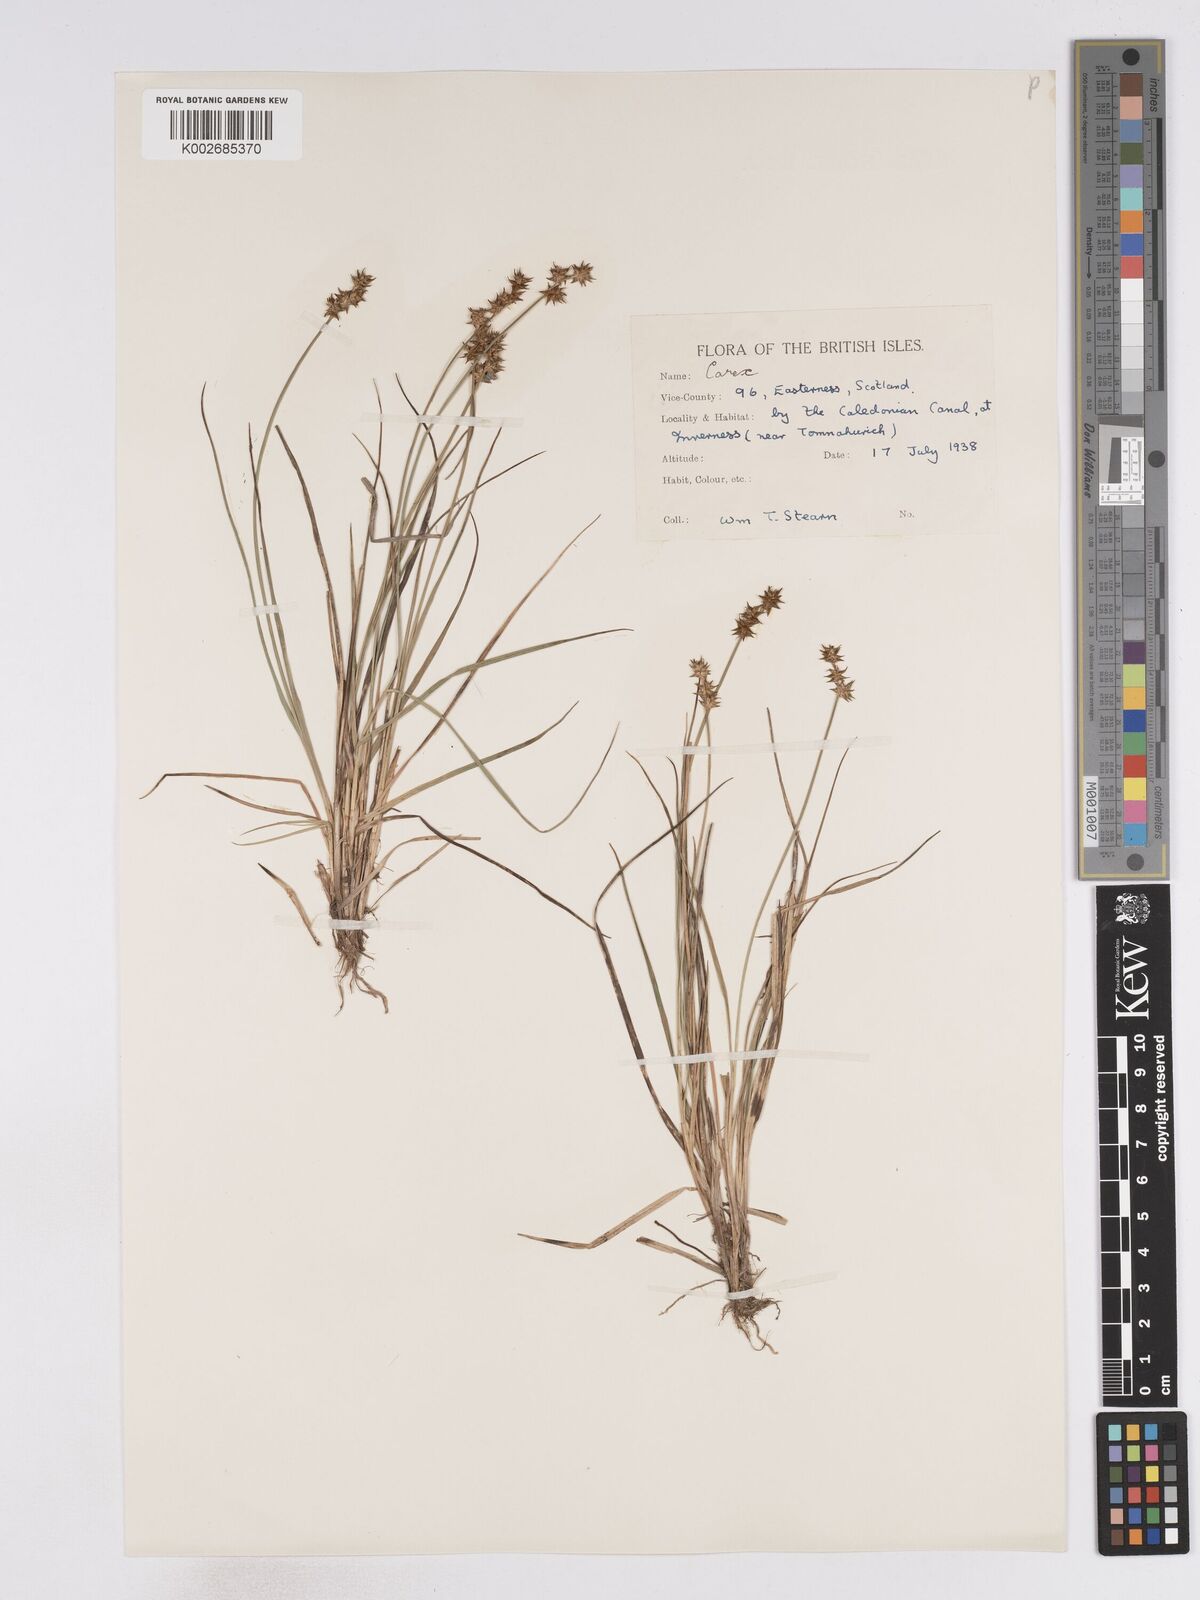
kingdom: Plantae
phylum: Tracheophyta
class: Liliopsida
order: Poales
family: Cyperaceae
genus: Carex
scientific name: Carex echinata
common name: Star sedge
